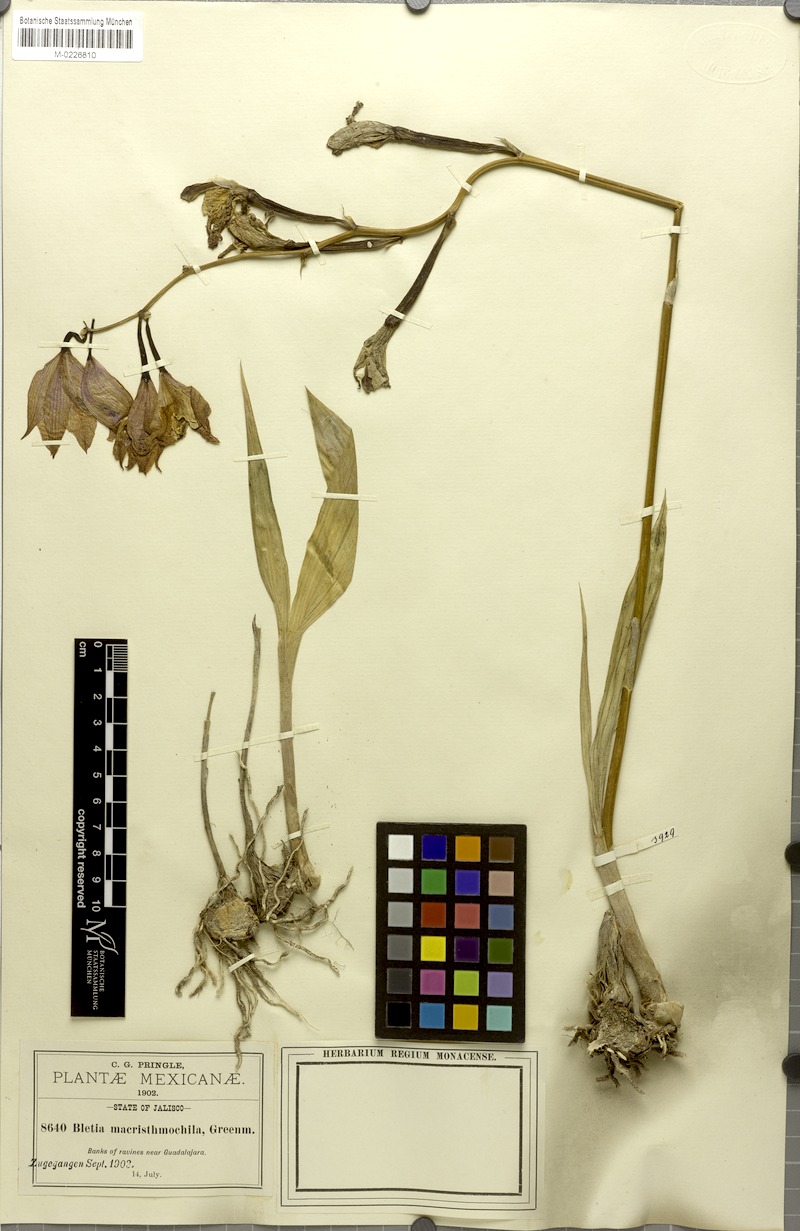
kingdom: Plantae
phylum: Tracheophyta
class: Liliopsida
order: Asparagales
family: Orchidaceae
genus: Bletia
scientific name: Bletia macristhmochila
